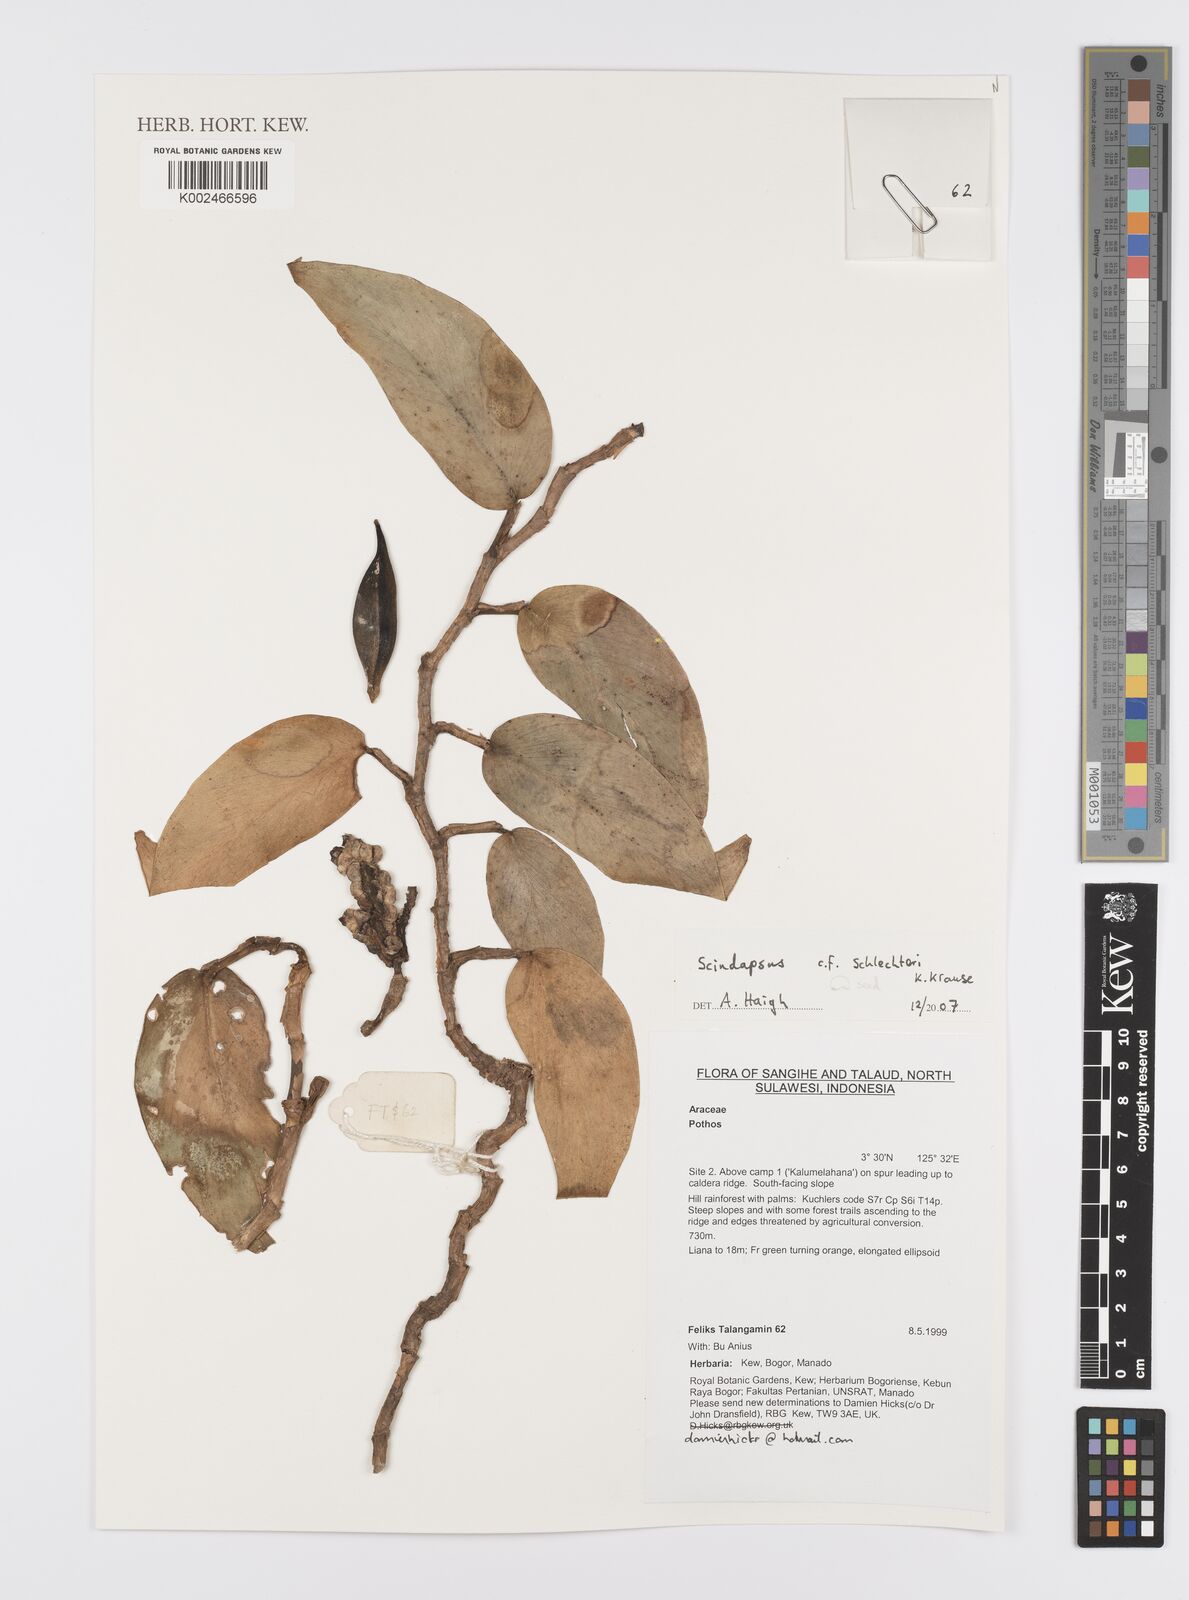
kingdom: Plantae
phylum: Tracheophyta
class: Liliopsida
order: Alismatales
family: Araceae
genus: Scindapsus
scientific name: Scindapsus schlechteri
